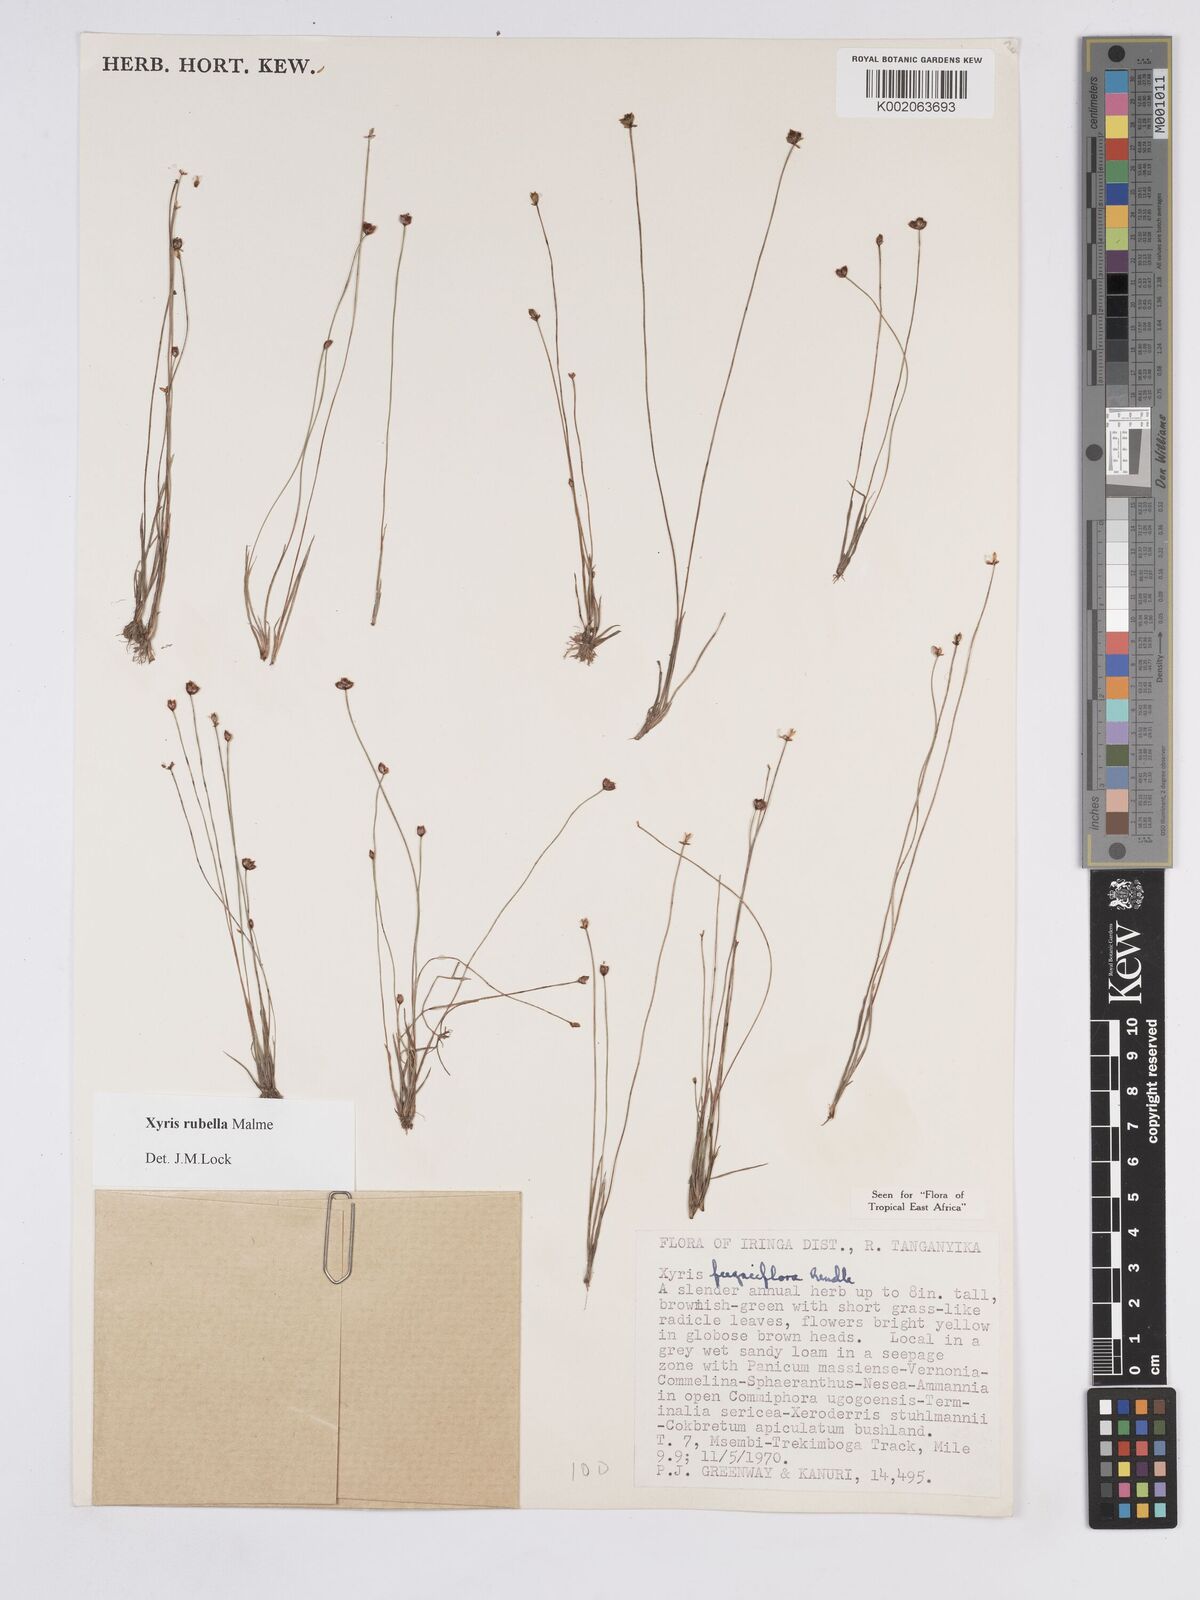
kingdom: Plantae
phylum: Tracheophyta
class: Liliopsida
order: Poales
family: Xyridaceae
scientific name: Xyridaceae
